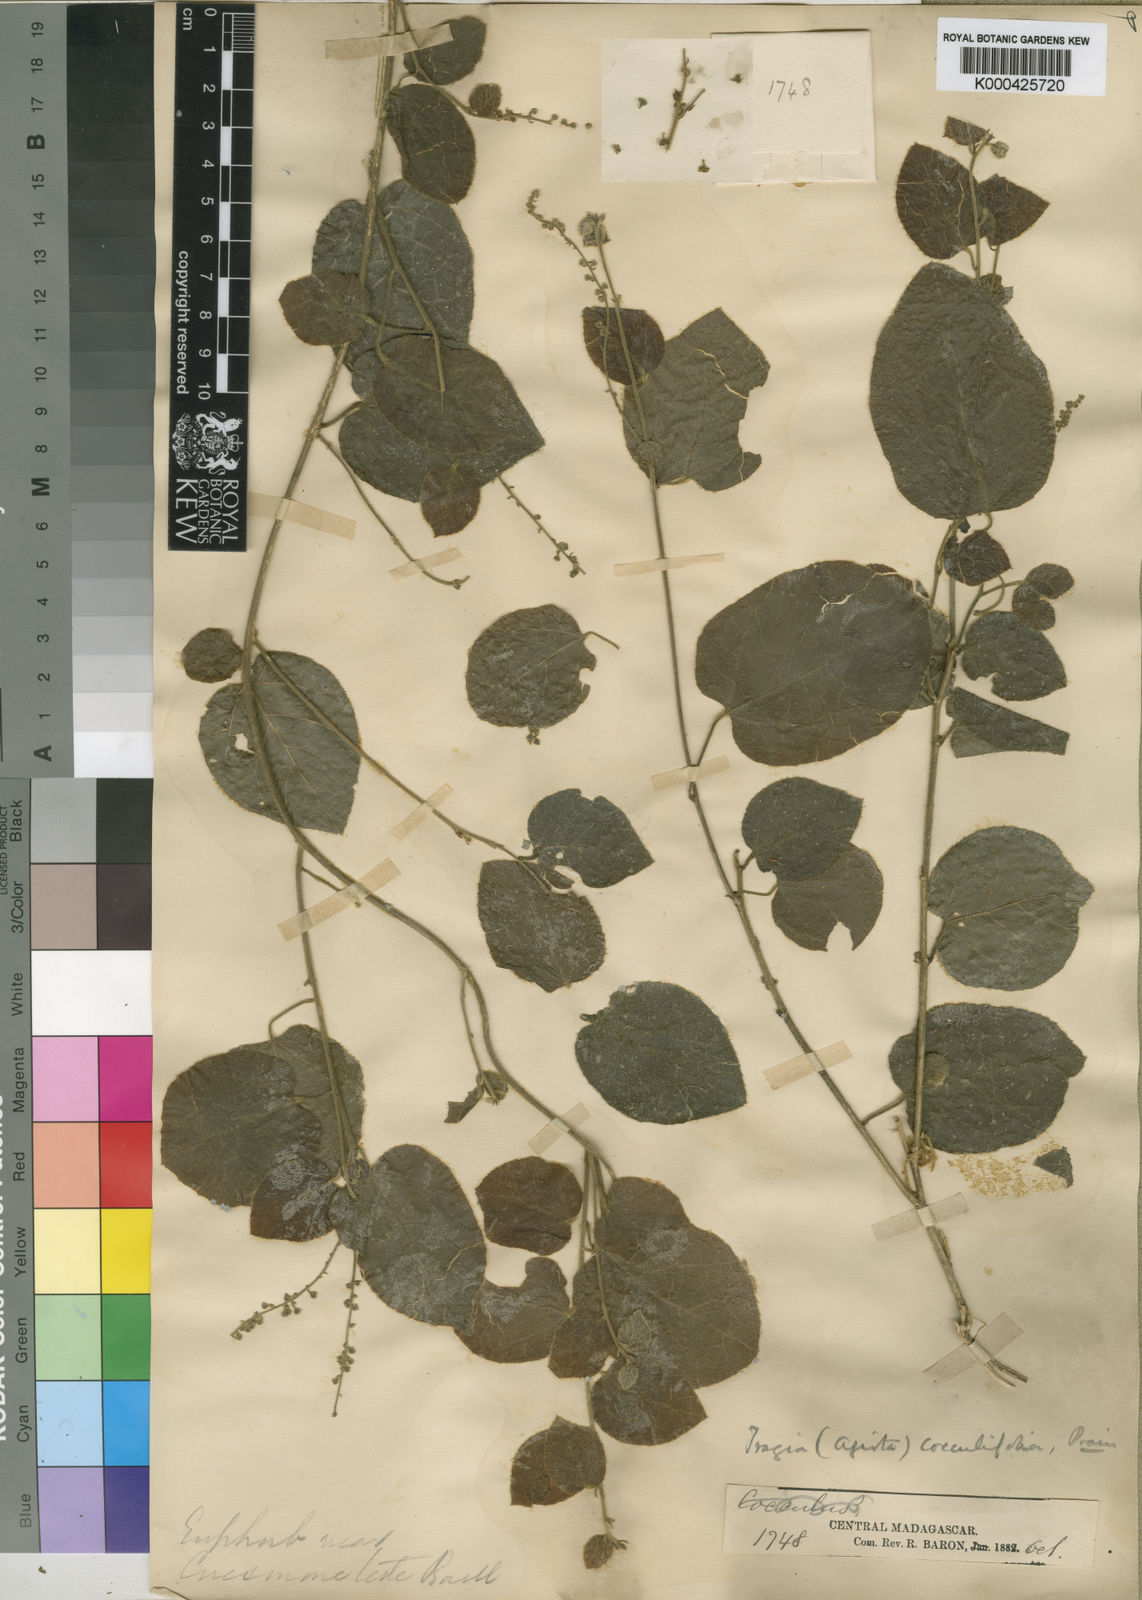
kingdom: Plantae
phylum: Tracheophyta
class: Magnoliopsida
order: Malpighiales
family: Euphorbiaceae
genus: Tragia
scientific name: Tragia cocculifolia
